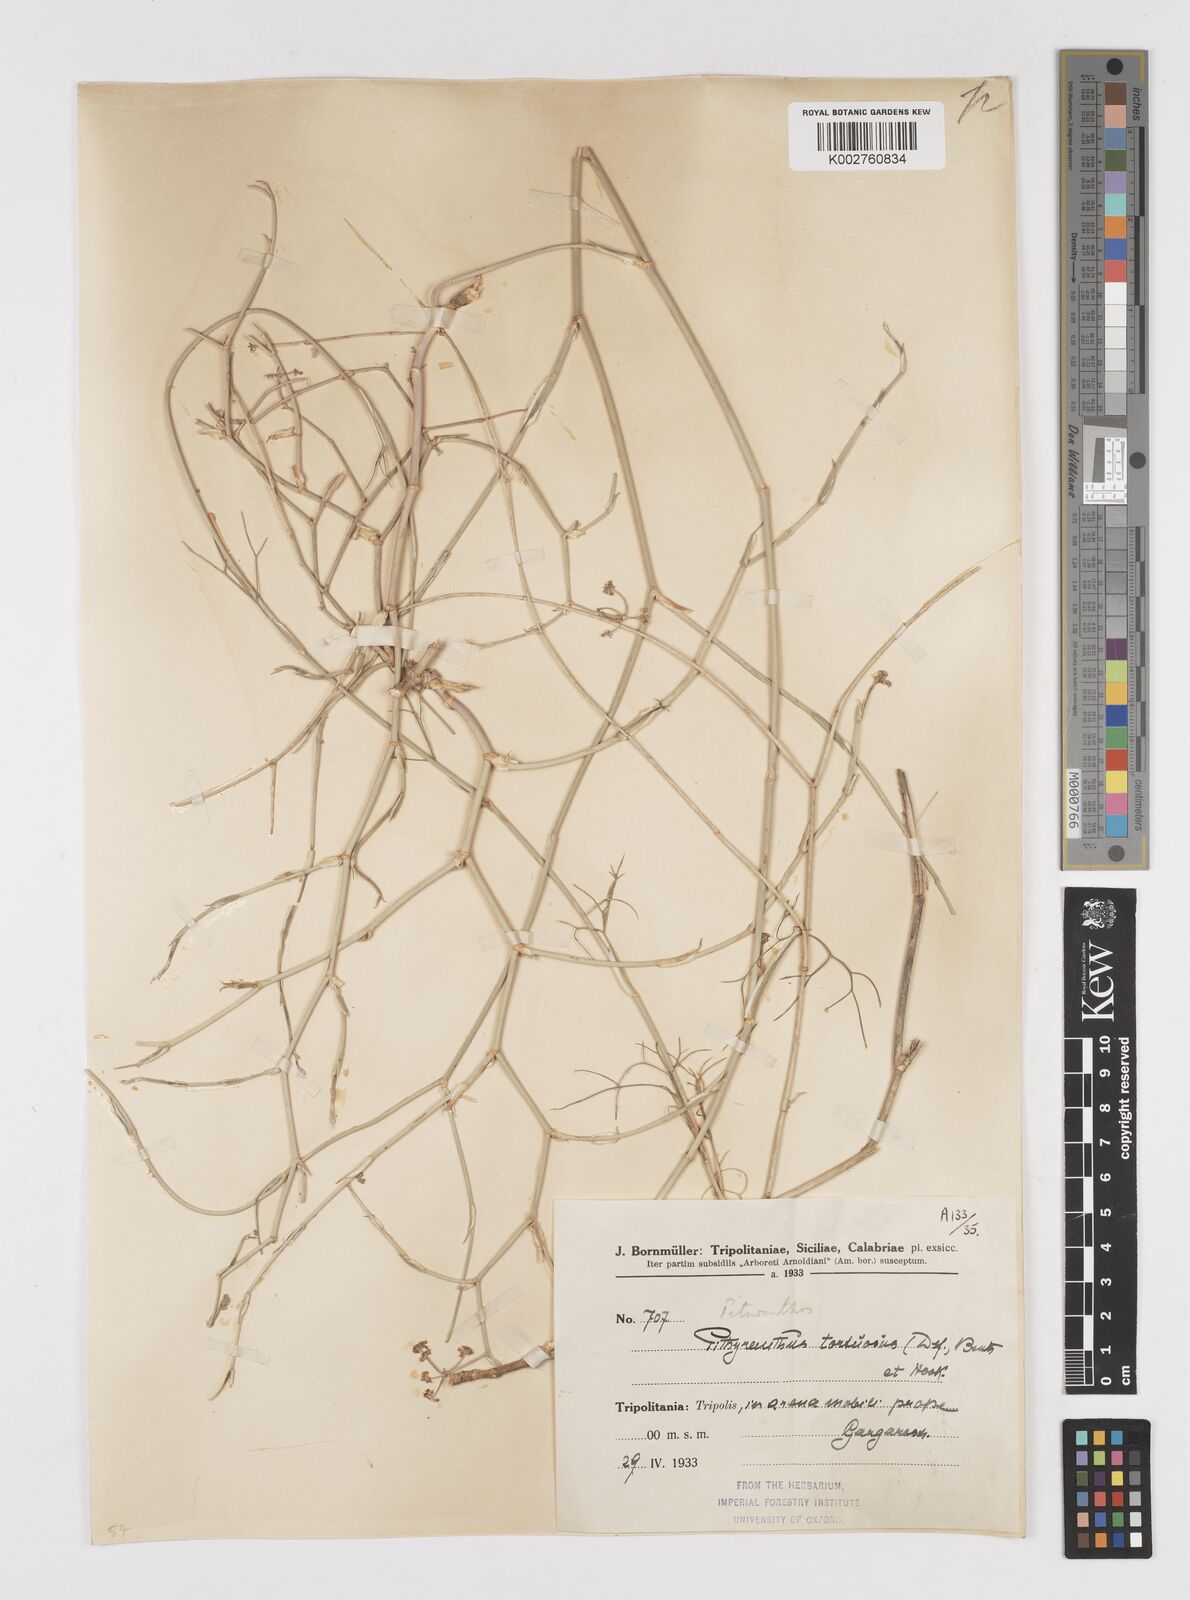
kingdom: Plantae
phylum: Tracheophyta
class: Magnoliopsida
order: Apiales
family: Apiaceae
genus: Deverra
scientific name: Deverra
